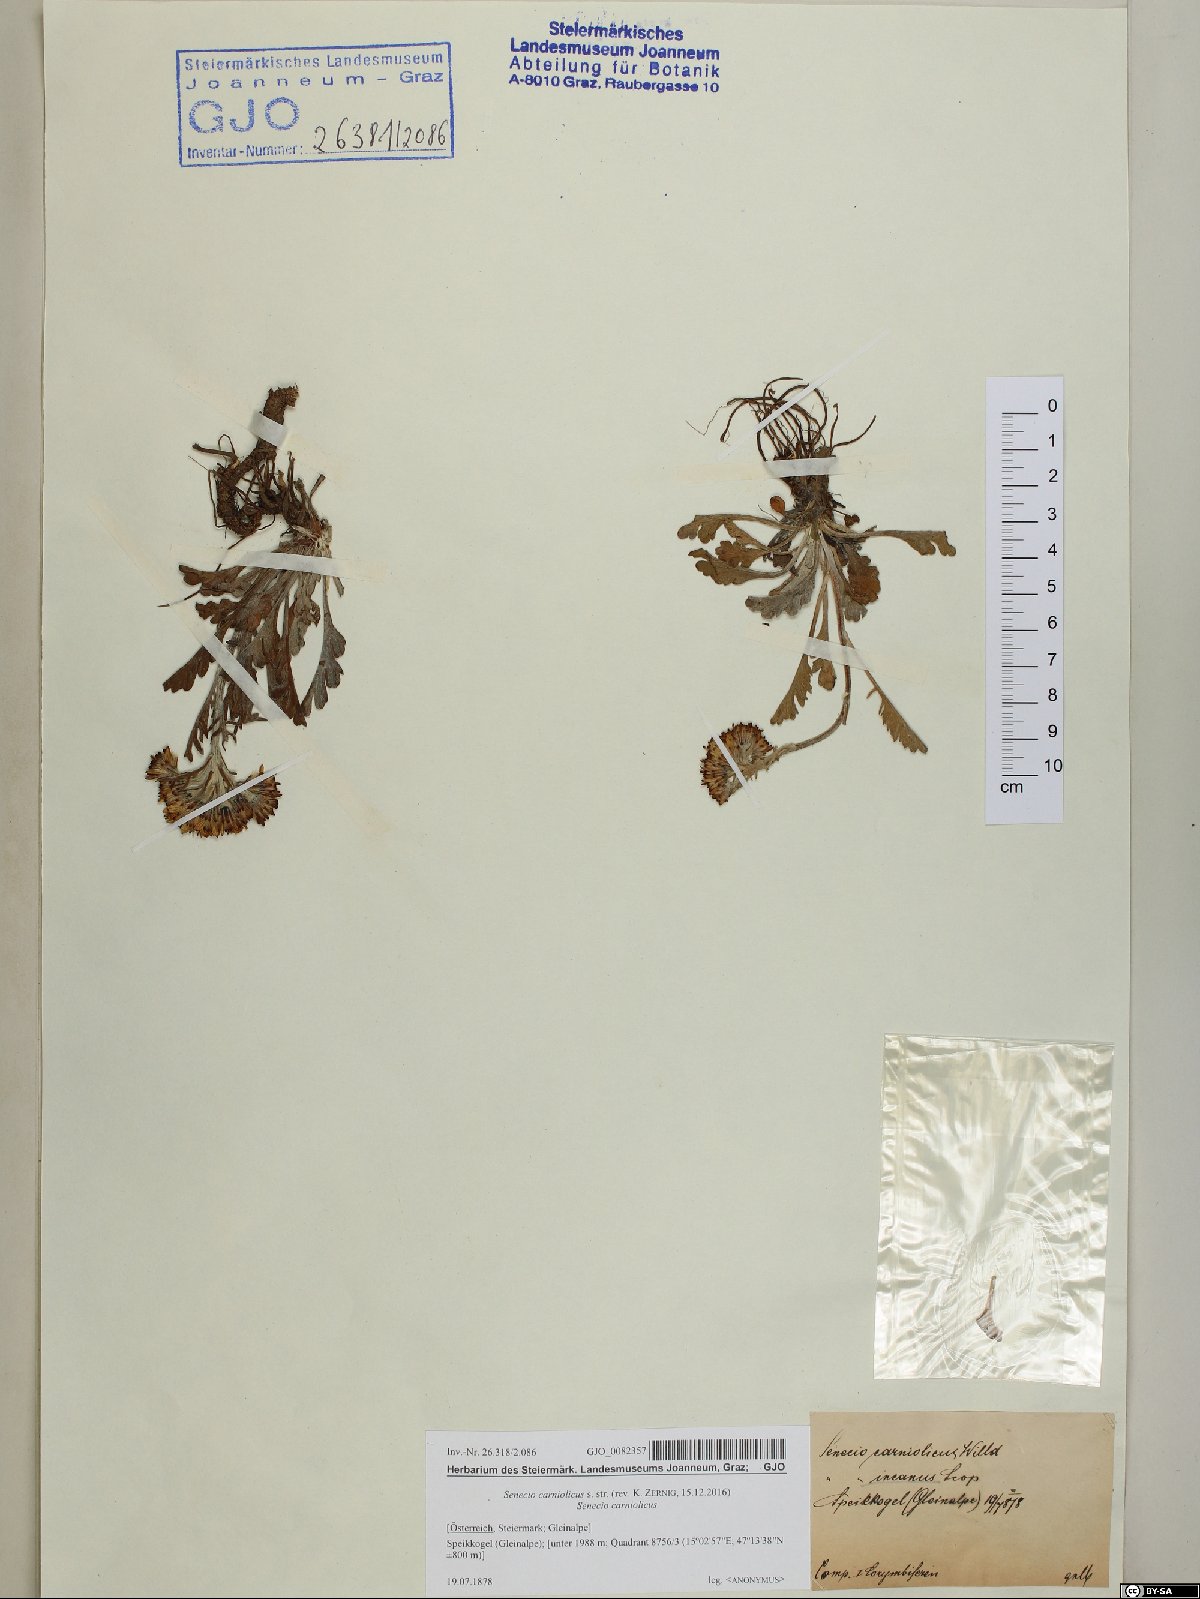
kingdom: Plantae
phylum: Tracheophyta
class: Magnoliopsida
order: Asterales
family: Asteraceae
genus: Jacobaea
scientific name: Jacobaea carniolica
